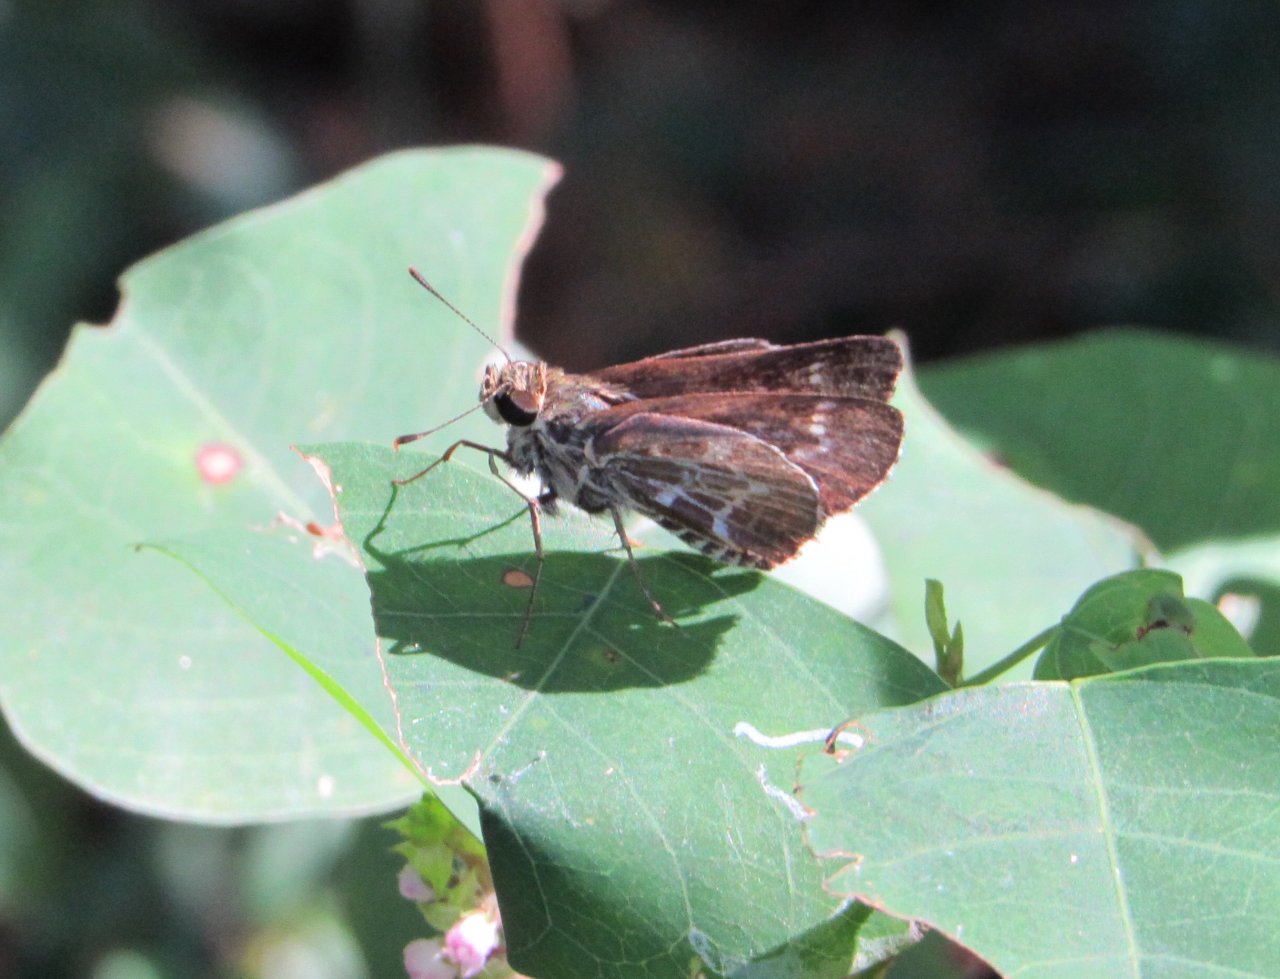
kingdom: Animalia
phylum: Arthropoda
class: Insecta
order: Lepidoptera
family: Hesperiidae
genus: Mastor
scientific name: Mastor aesculapius
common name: Lace-winged Roadside-Skipper
